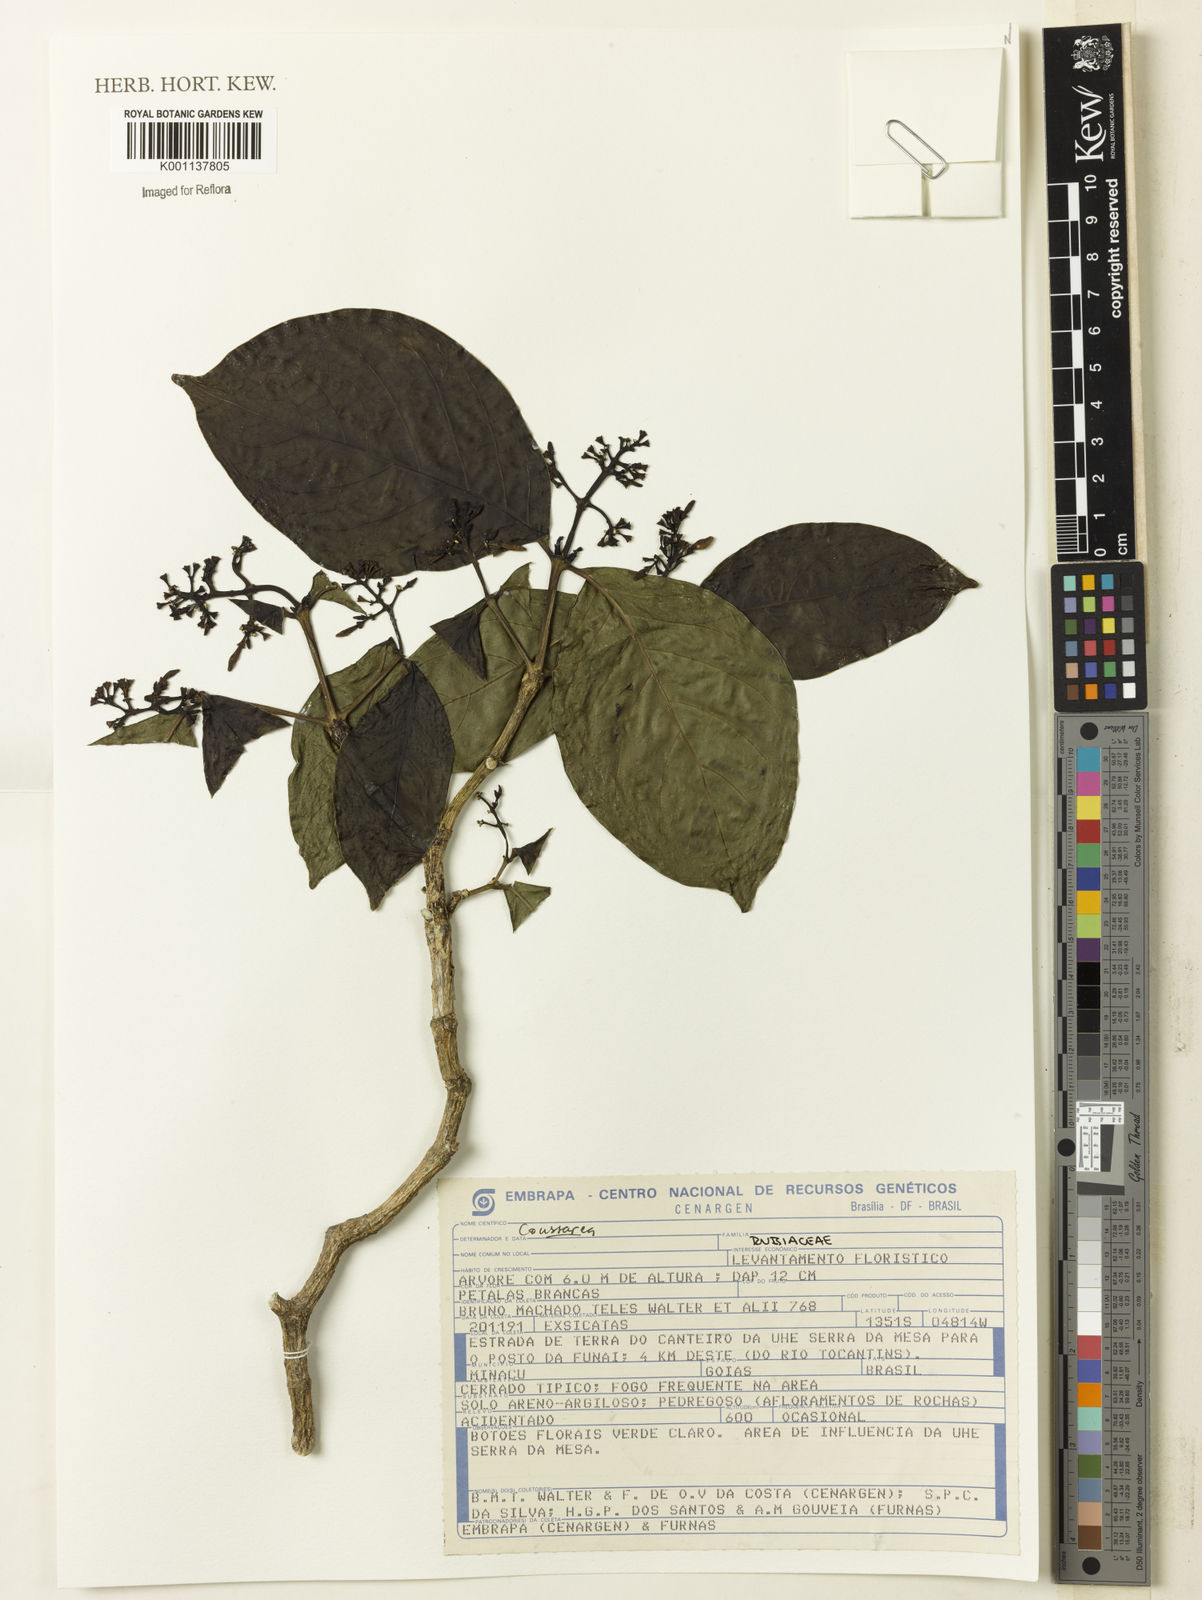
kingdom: Plantae
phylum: Tracheophyta
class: Magnoliopsida
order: Gentianales
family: Rubiaceae
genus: Coussarea
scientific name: Coussarea
